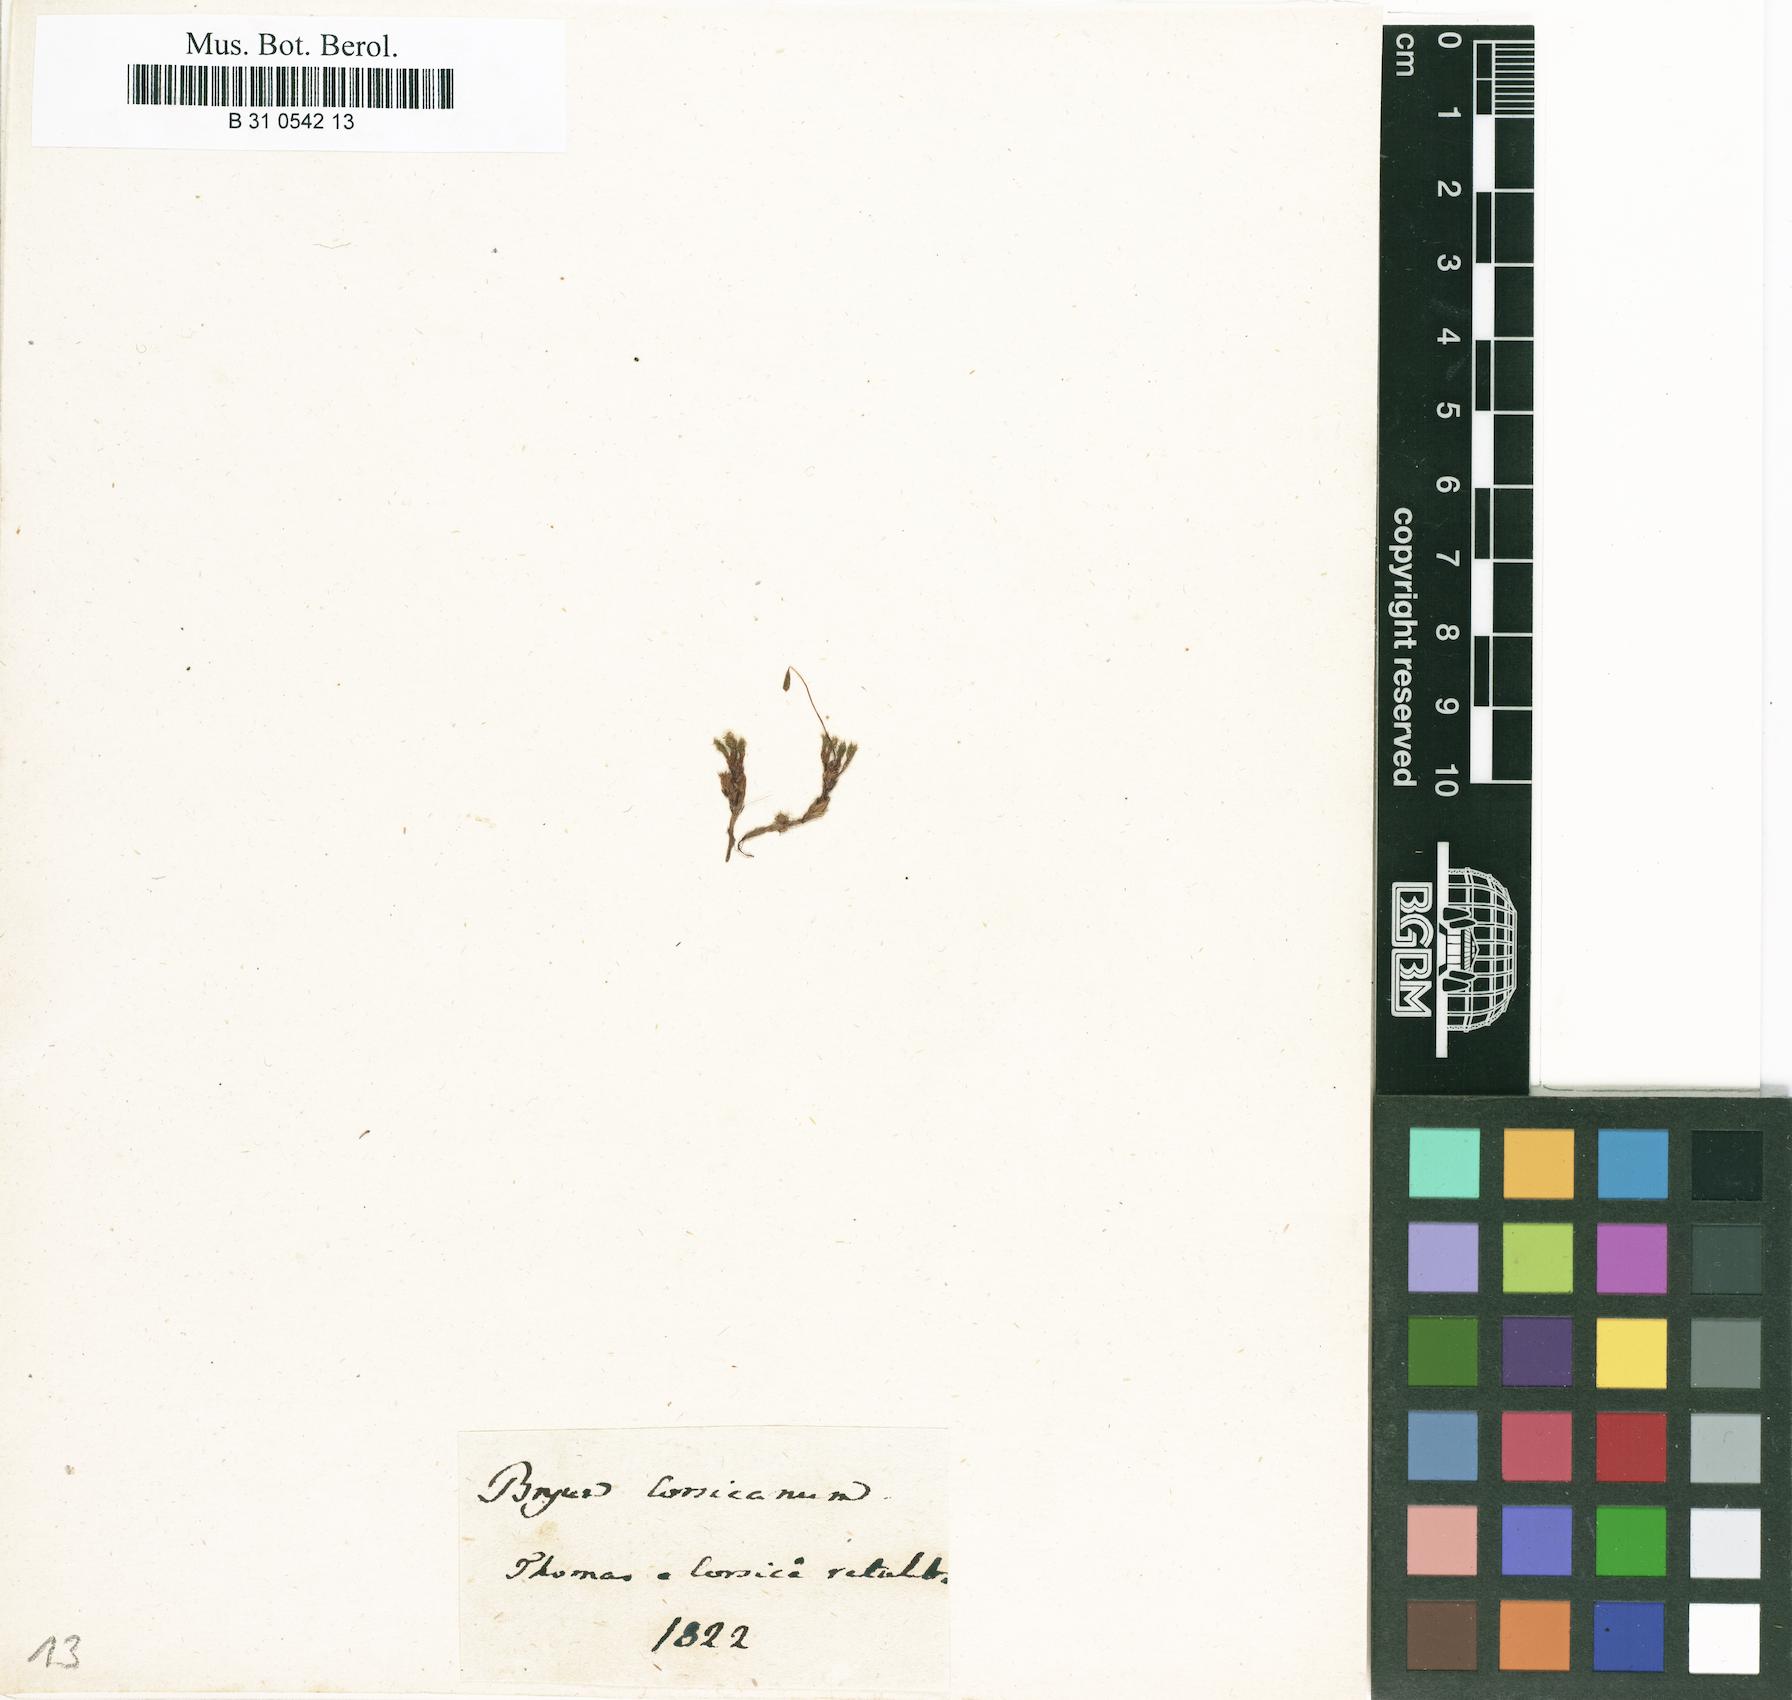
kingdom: Plantae
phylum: Bryophyta
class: Bryopsida
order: Bryales
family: Bryaceae
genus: Rosulabryum
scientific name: Rosulabryum capillare
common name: Capillary thread-moss
